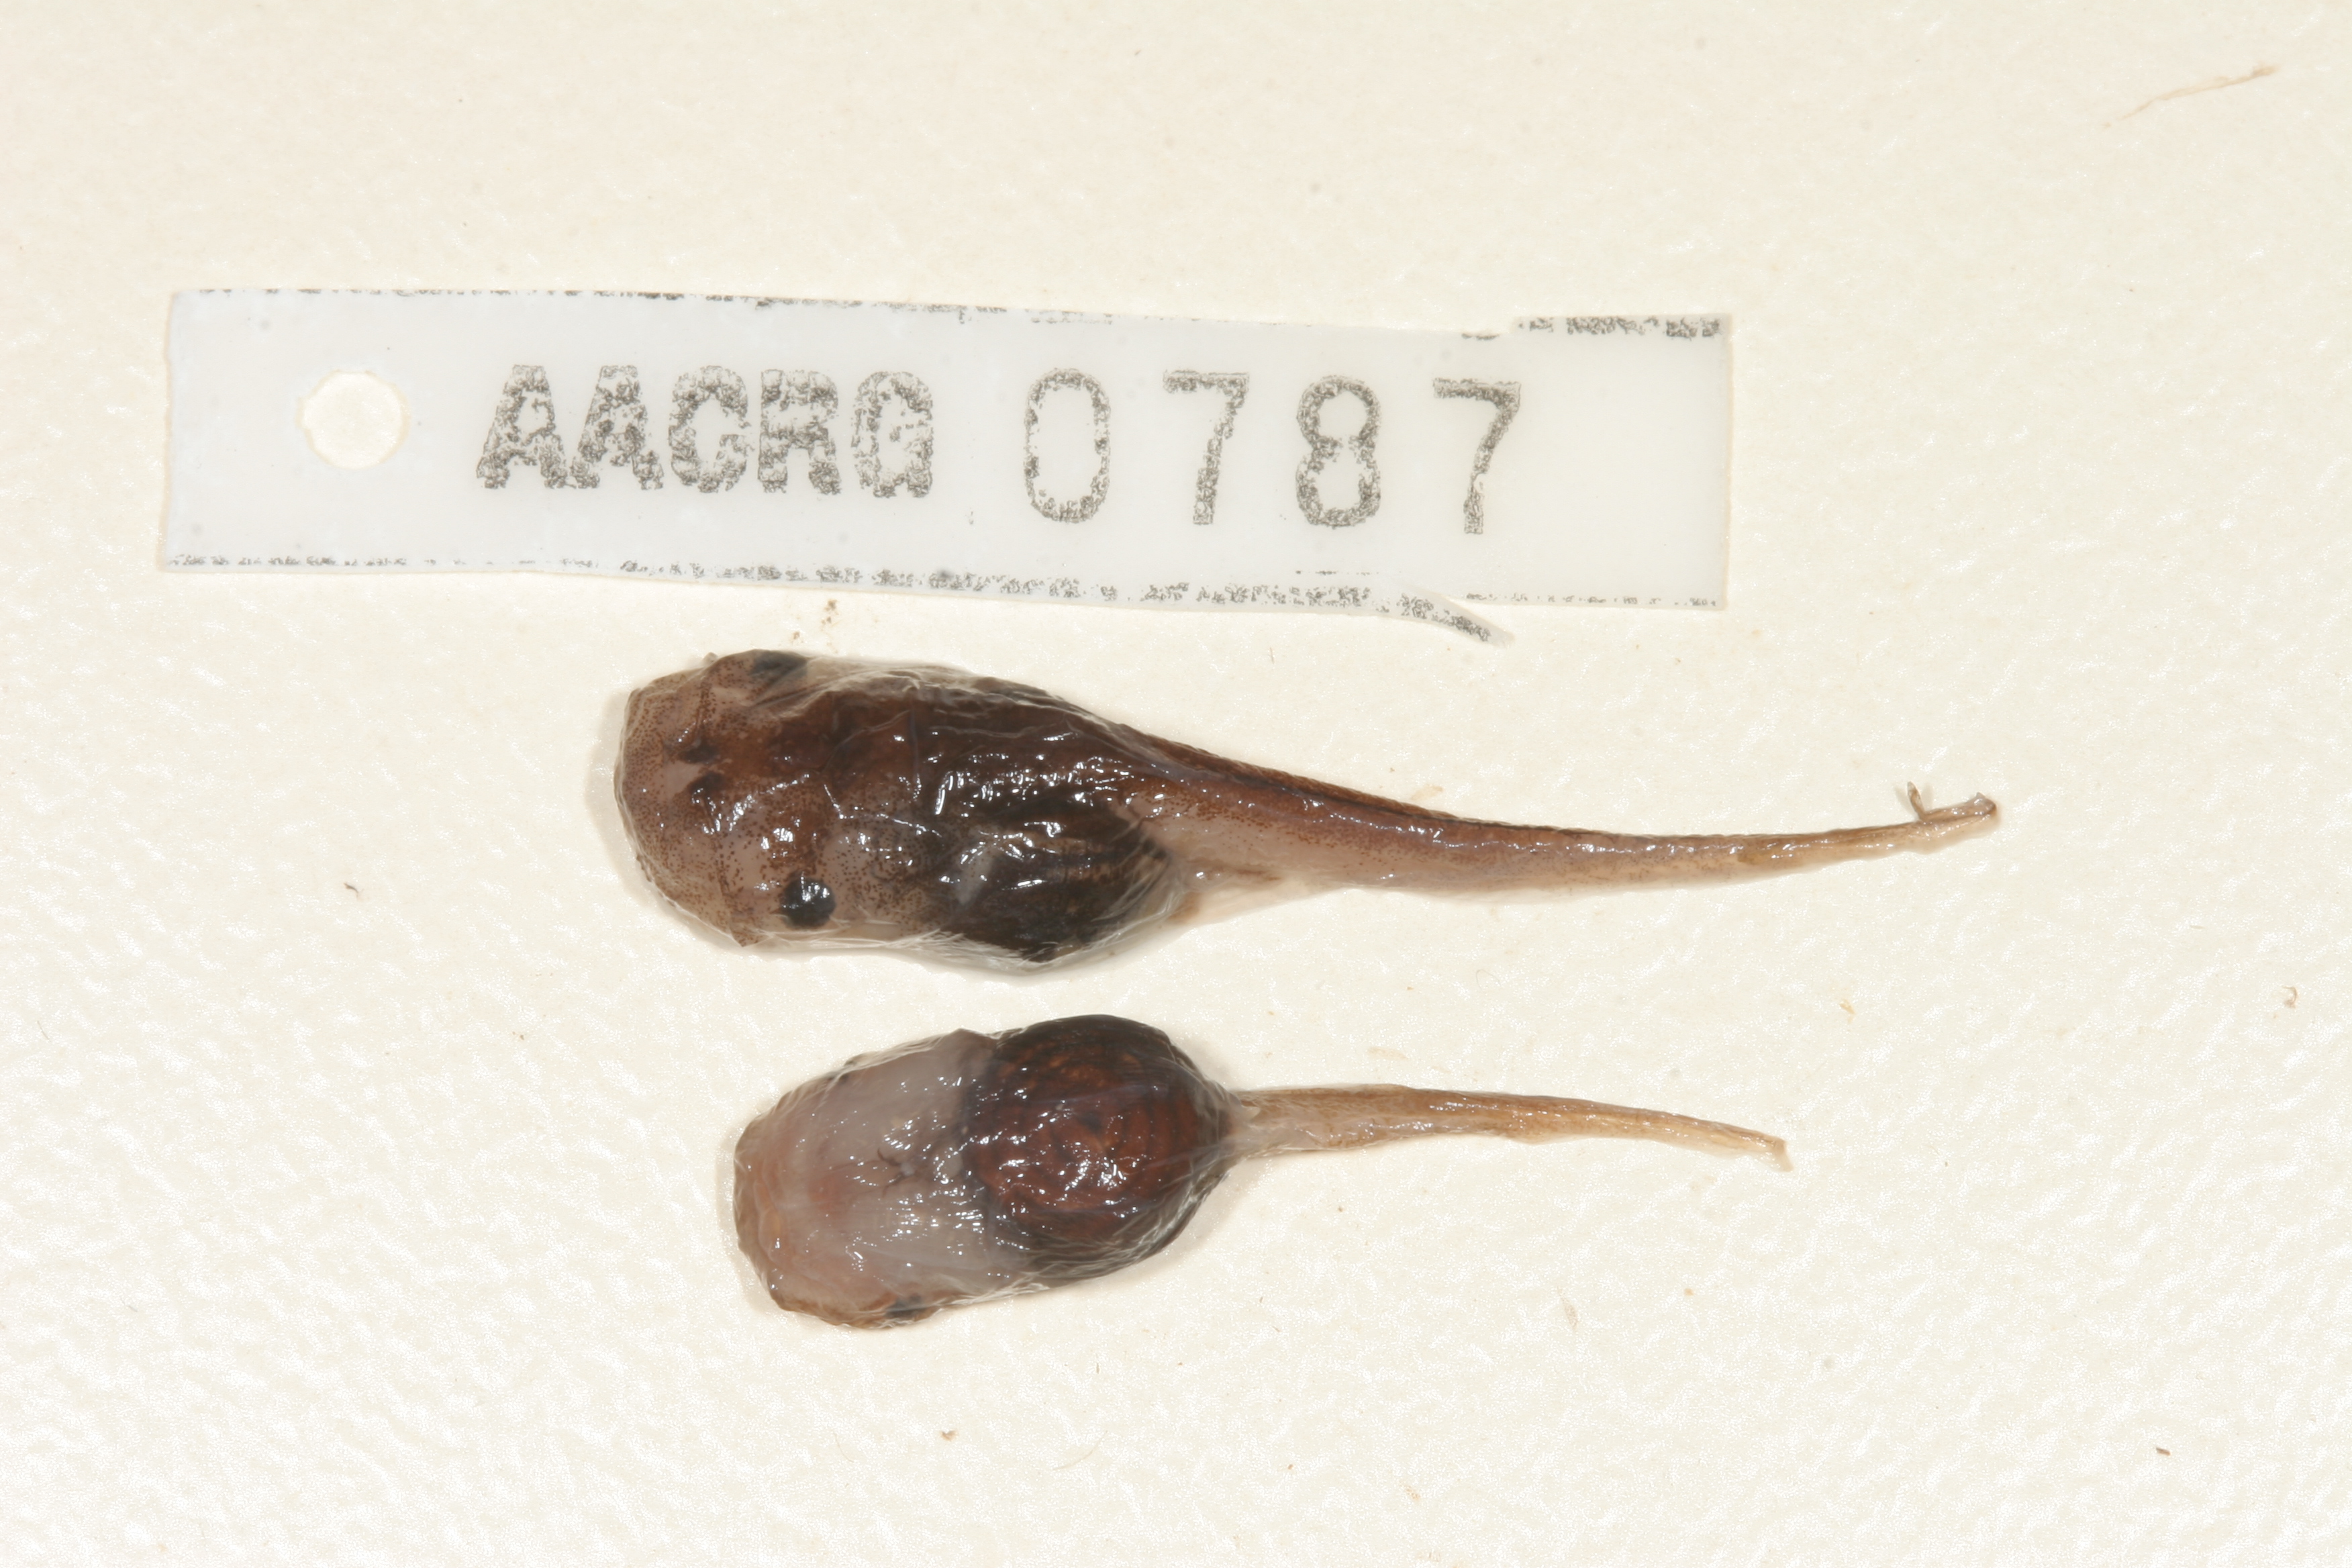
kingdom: Animalia
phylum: Chordata
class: Amphibia
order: Anura
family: Microhylidae
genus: Phrynomantis
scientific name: Phrynomantis annectens
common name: Marbled rubber frog
